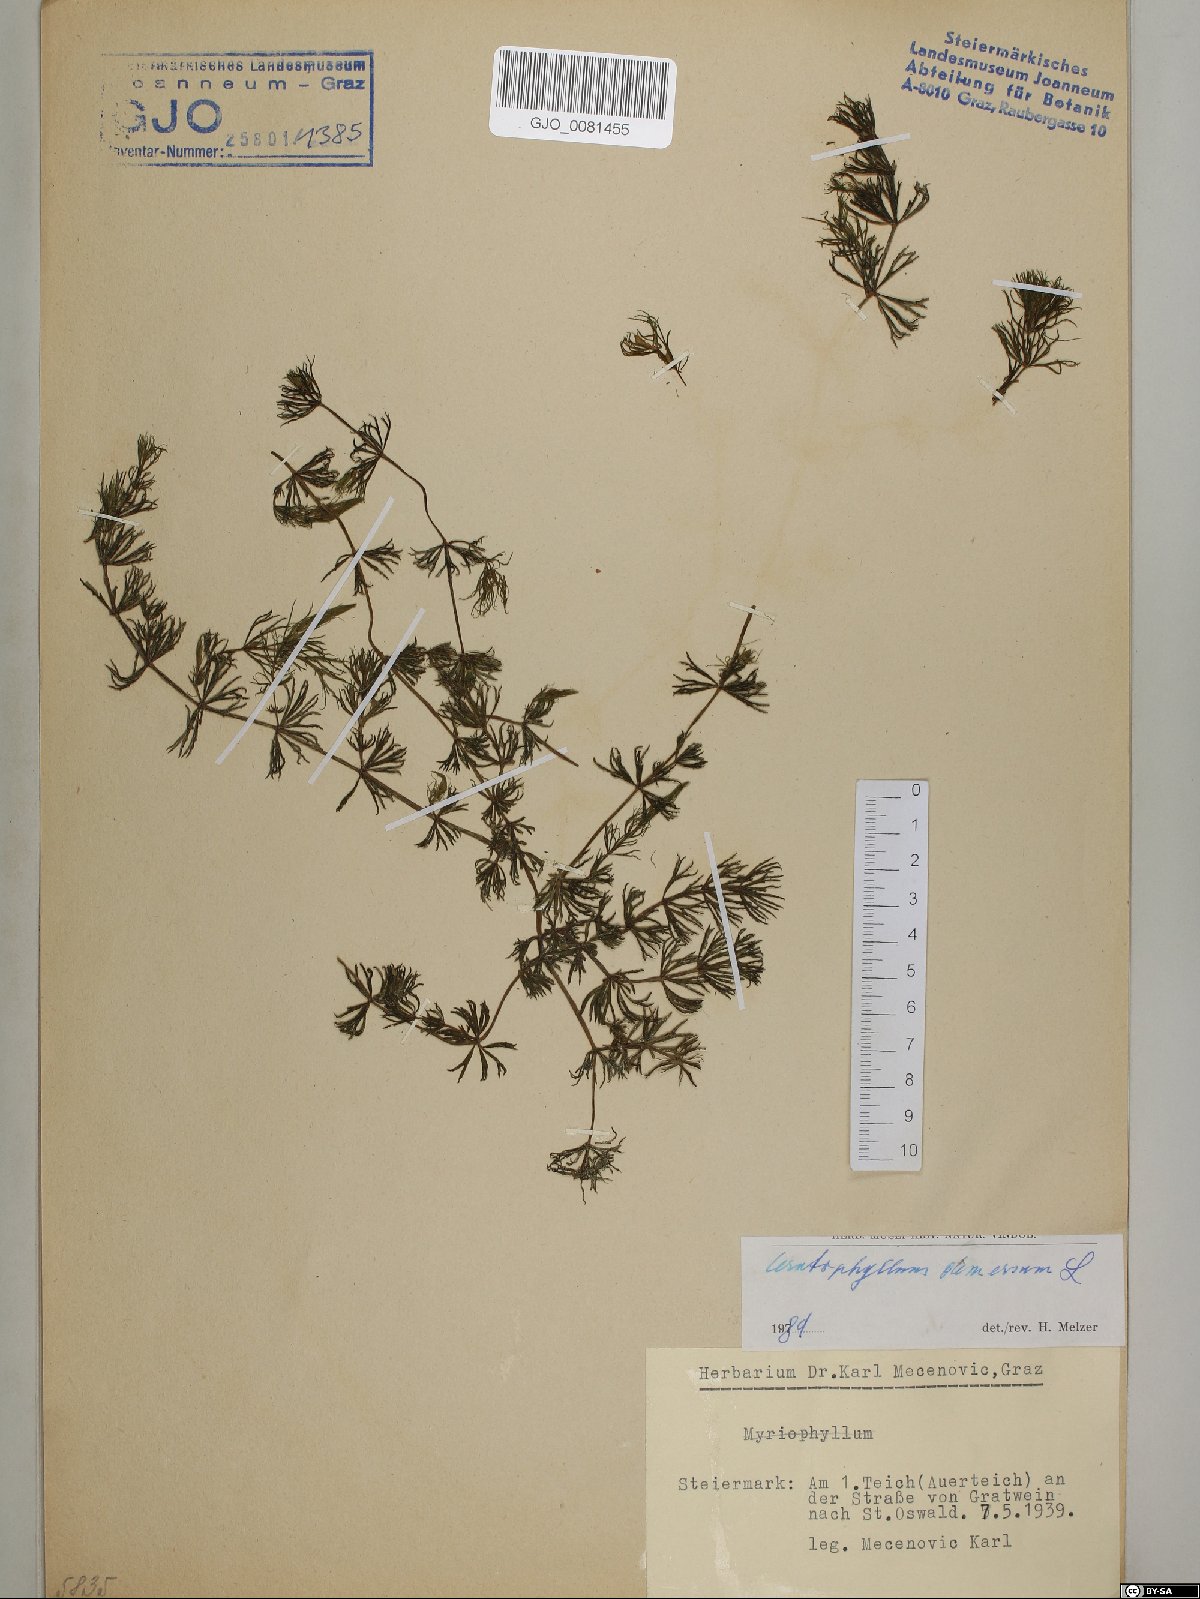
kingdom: Plantae
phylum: Tracheophyta
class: Magnoliopsida
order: Ceratophyllales
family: Ceratophyllaceae
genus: Ceratophyllum
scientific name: Ceratophyllum demersum
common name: Rigid hornwort
